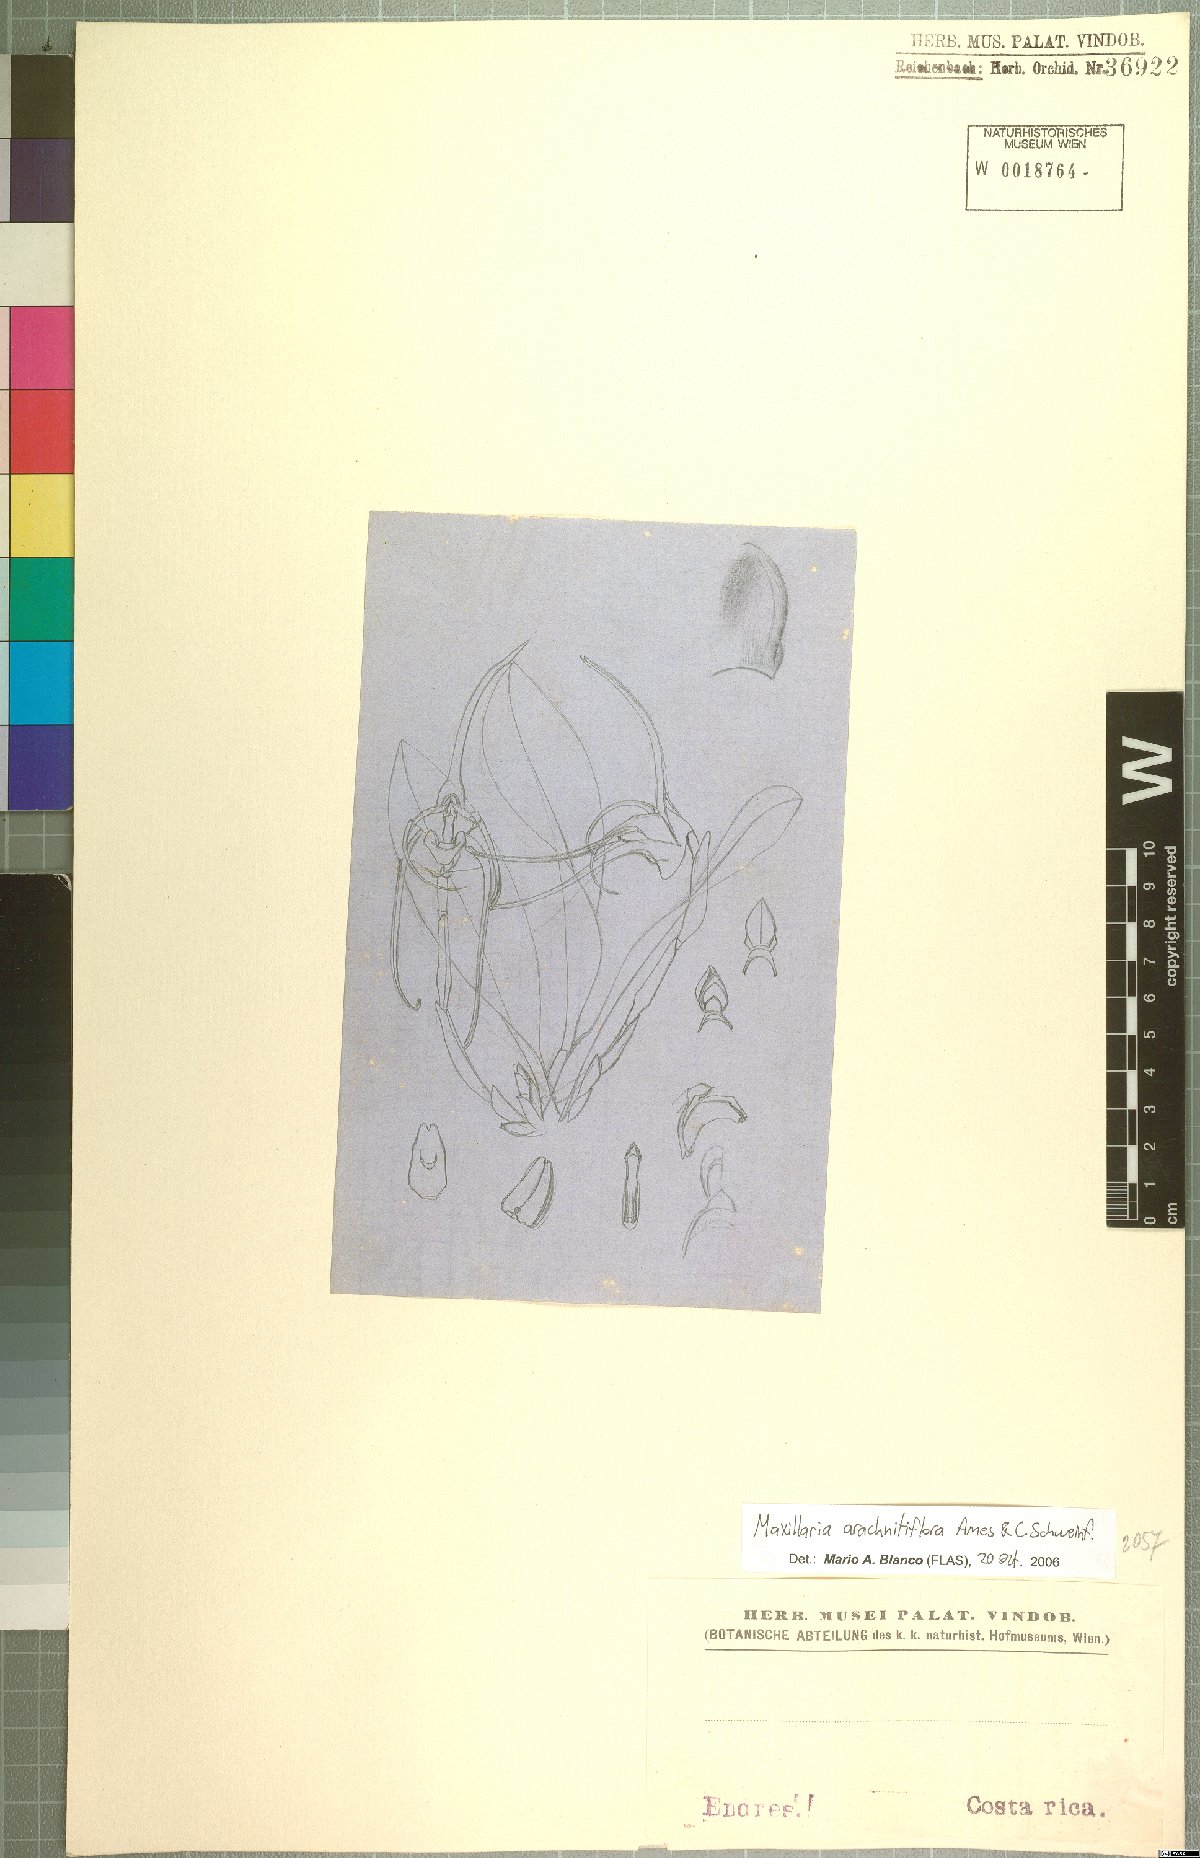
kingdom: Plantae
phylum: Tracheophyta
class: Liliopsida
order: Asparagales
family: Orchidaceae
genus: Maxillaria
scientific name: Maxillaria arachnitiflora
